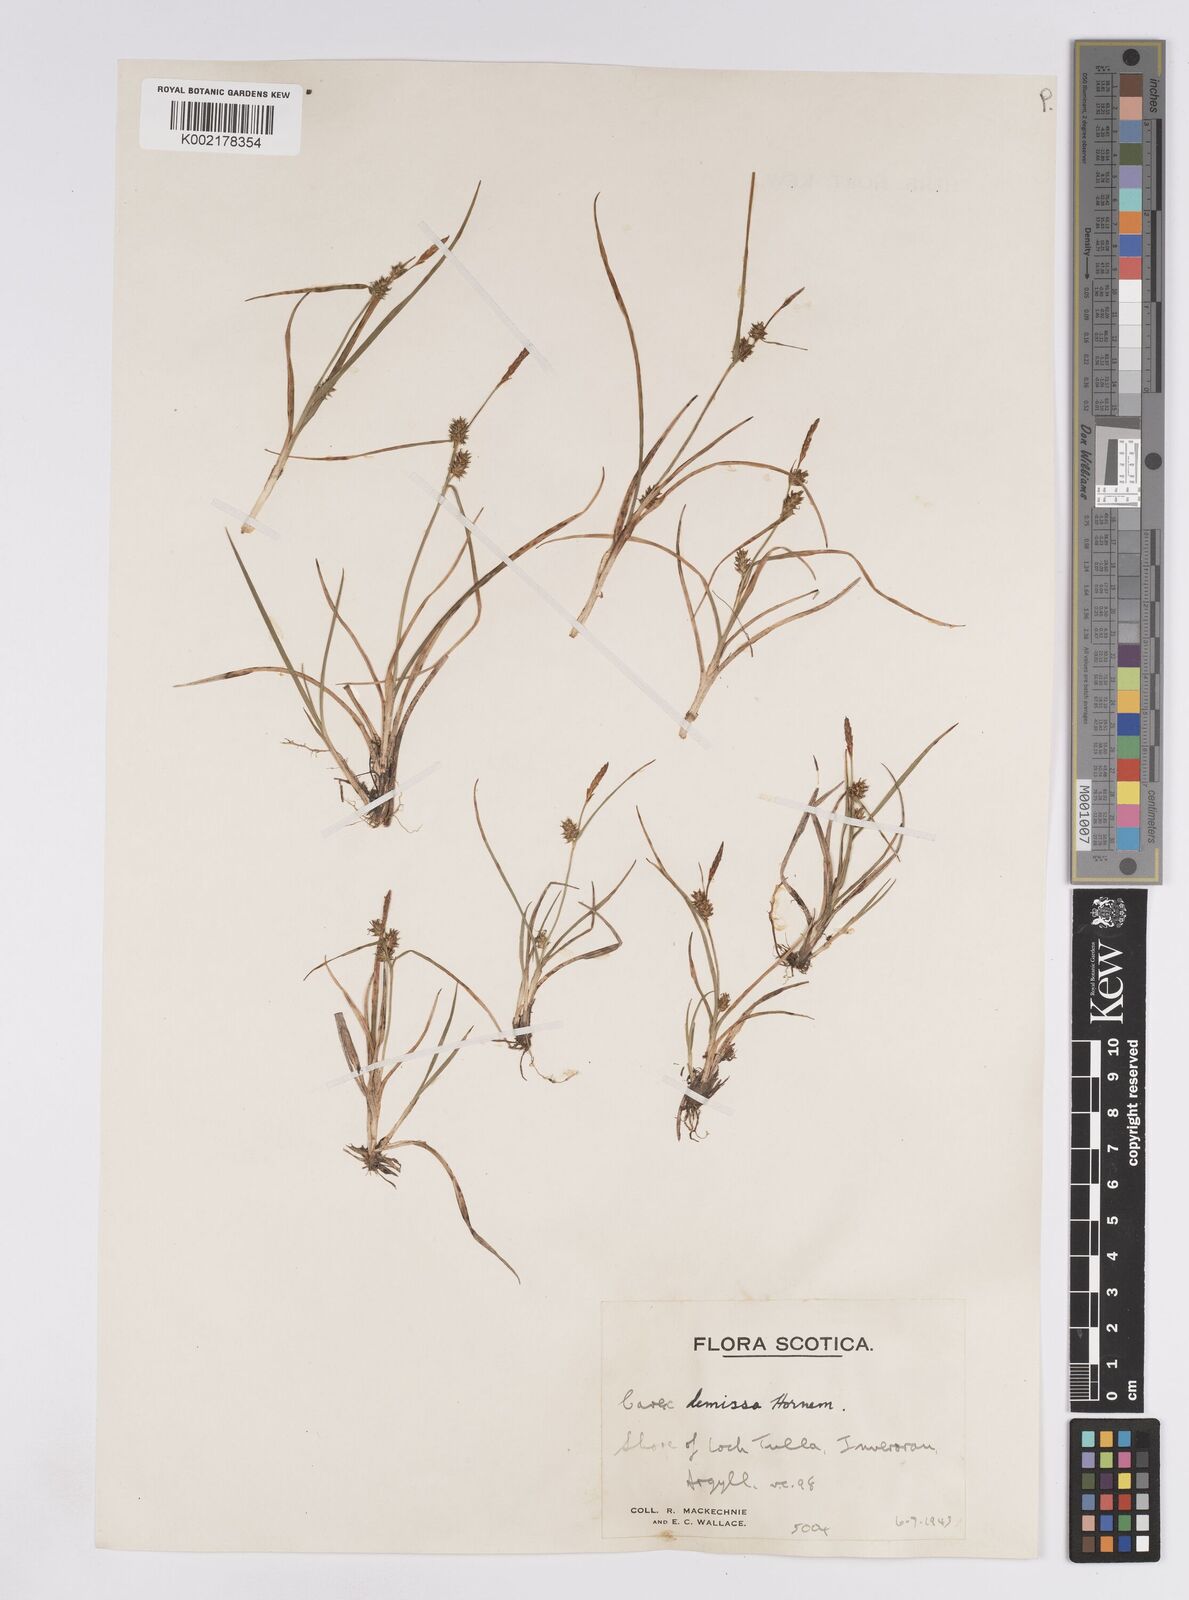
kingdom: Plantae
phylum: Tracheophyta
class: Liliopsida
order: Poales
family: Cyperaceae
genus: Carex
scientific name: Carex demissa
